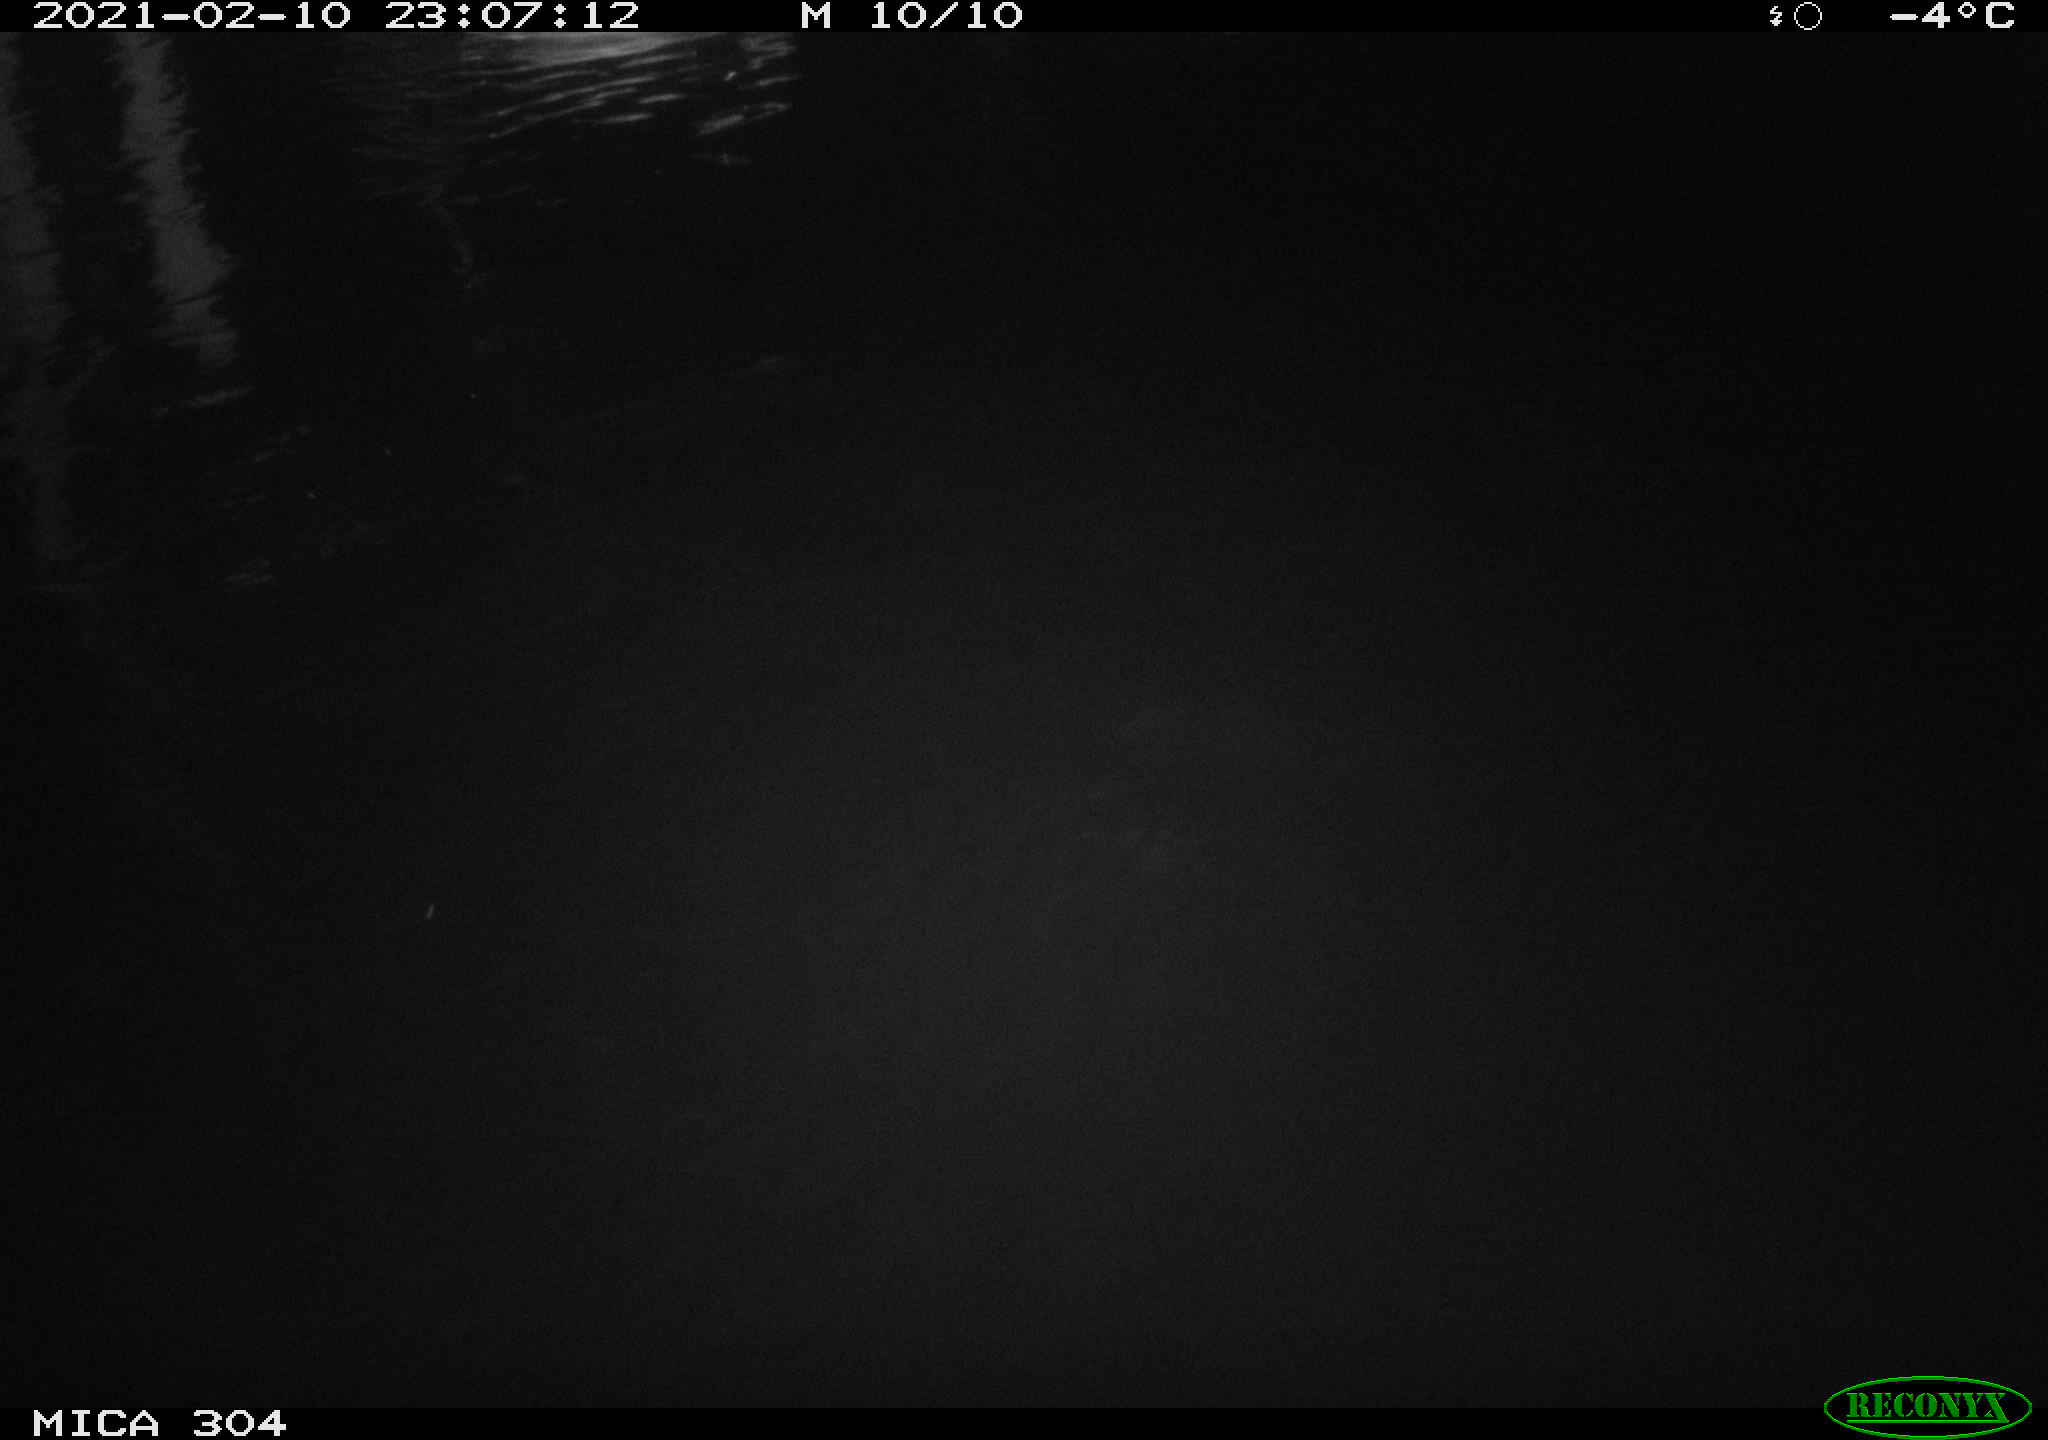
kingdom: Animalia
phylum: Chordata
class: Aves
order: Anseriformes
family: Anatidae
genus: Anas
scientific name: Anas platyrhynchos
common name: Mallard
